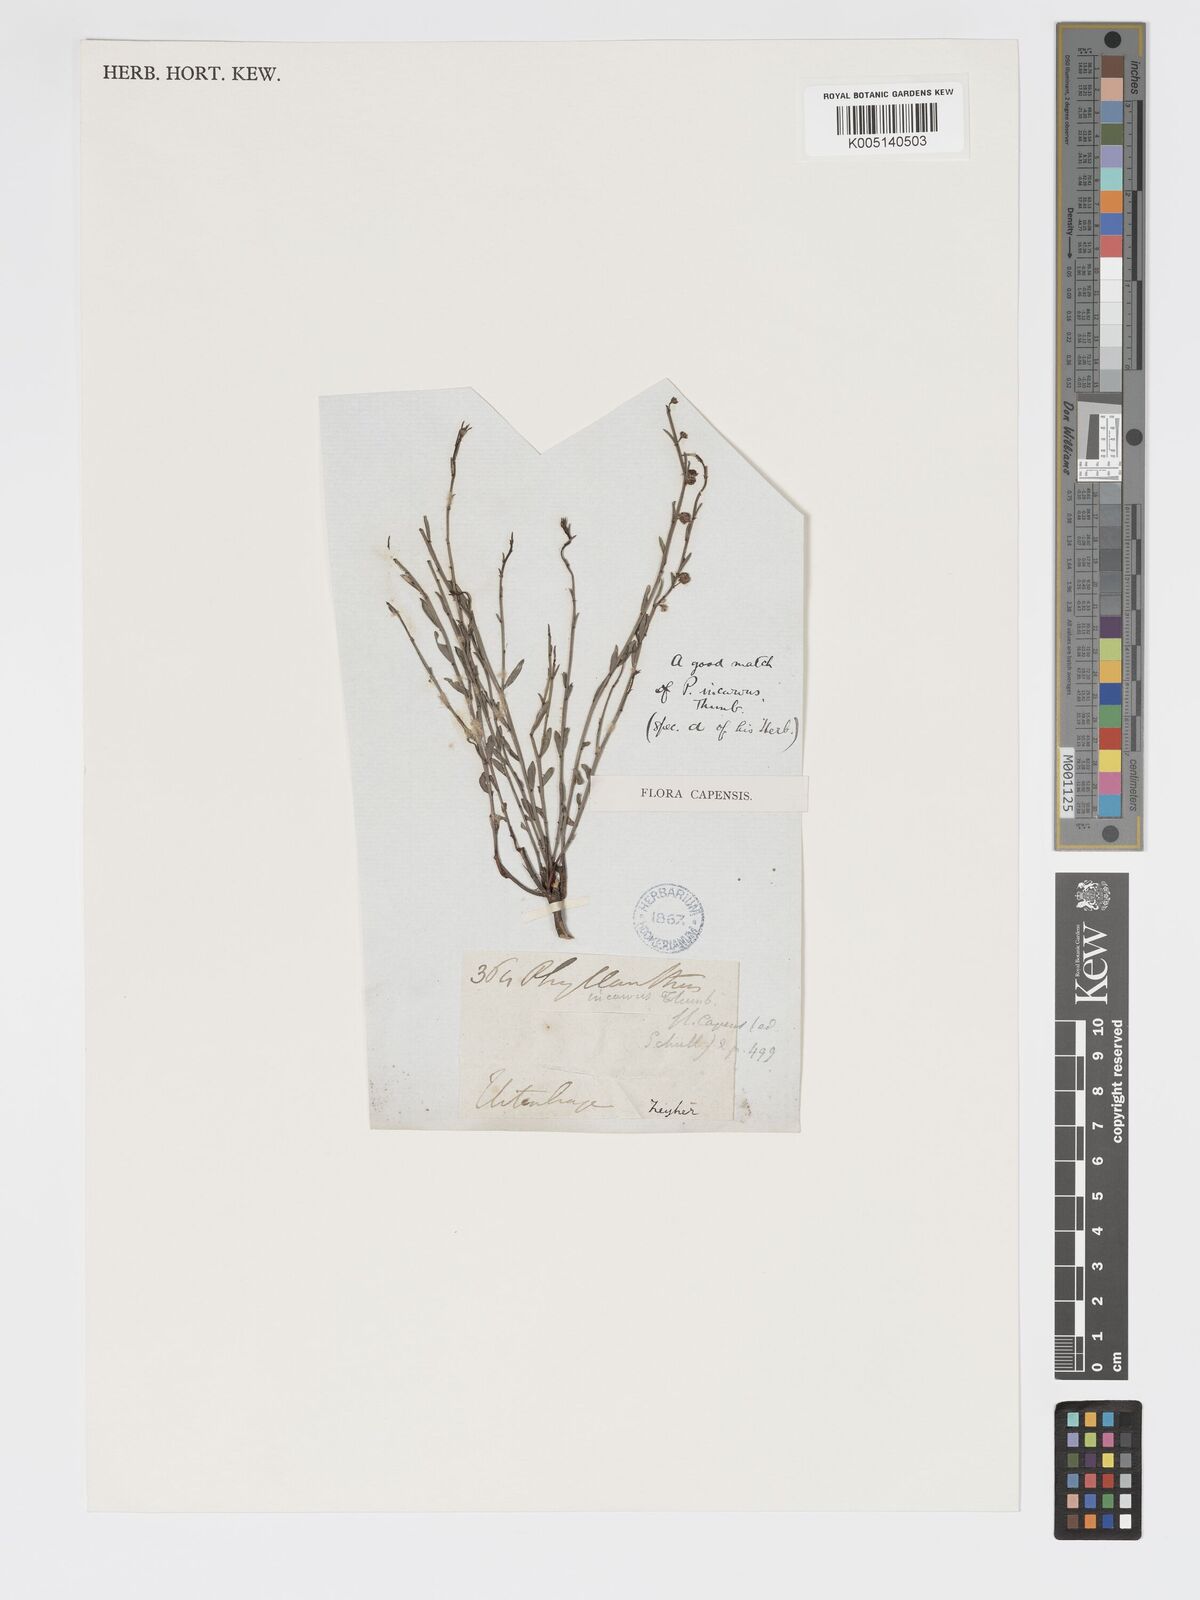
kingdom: Plantae
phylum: Tracheophyta
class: Magnoliopsida
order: Malpighiales
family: Phyllanthaceae
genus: Phyllanthus
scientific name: Phyllanthus incurvus
